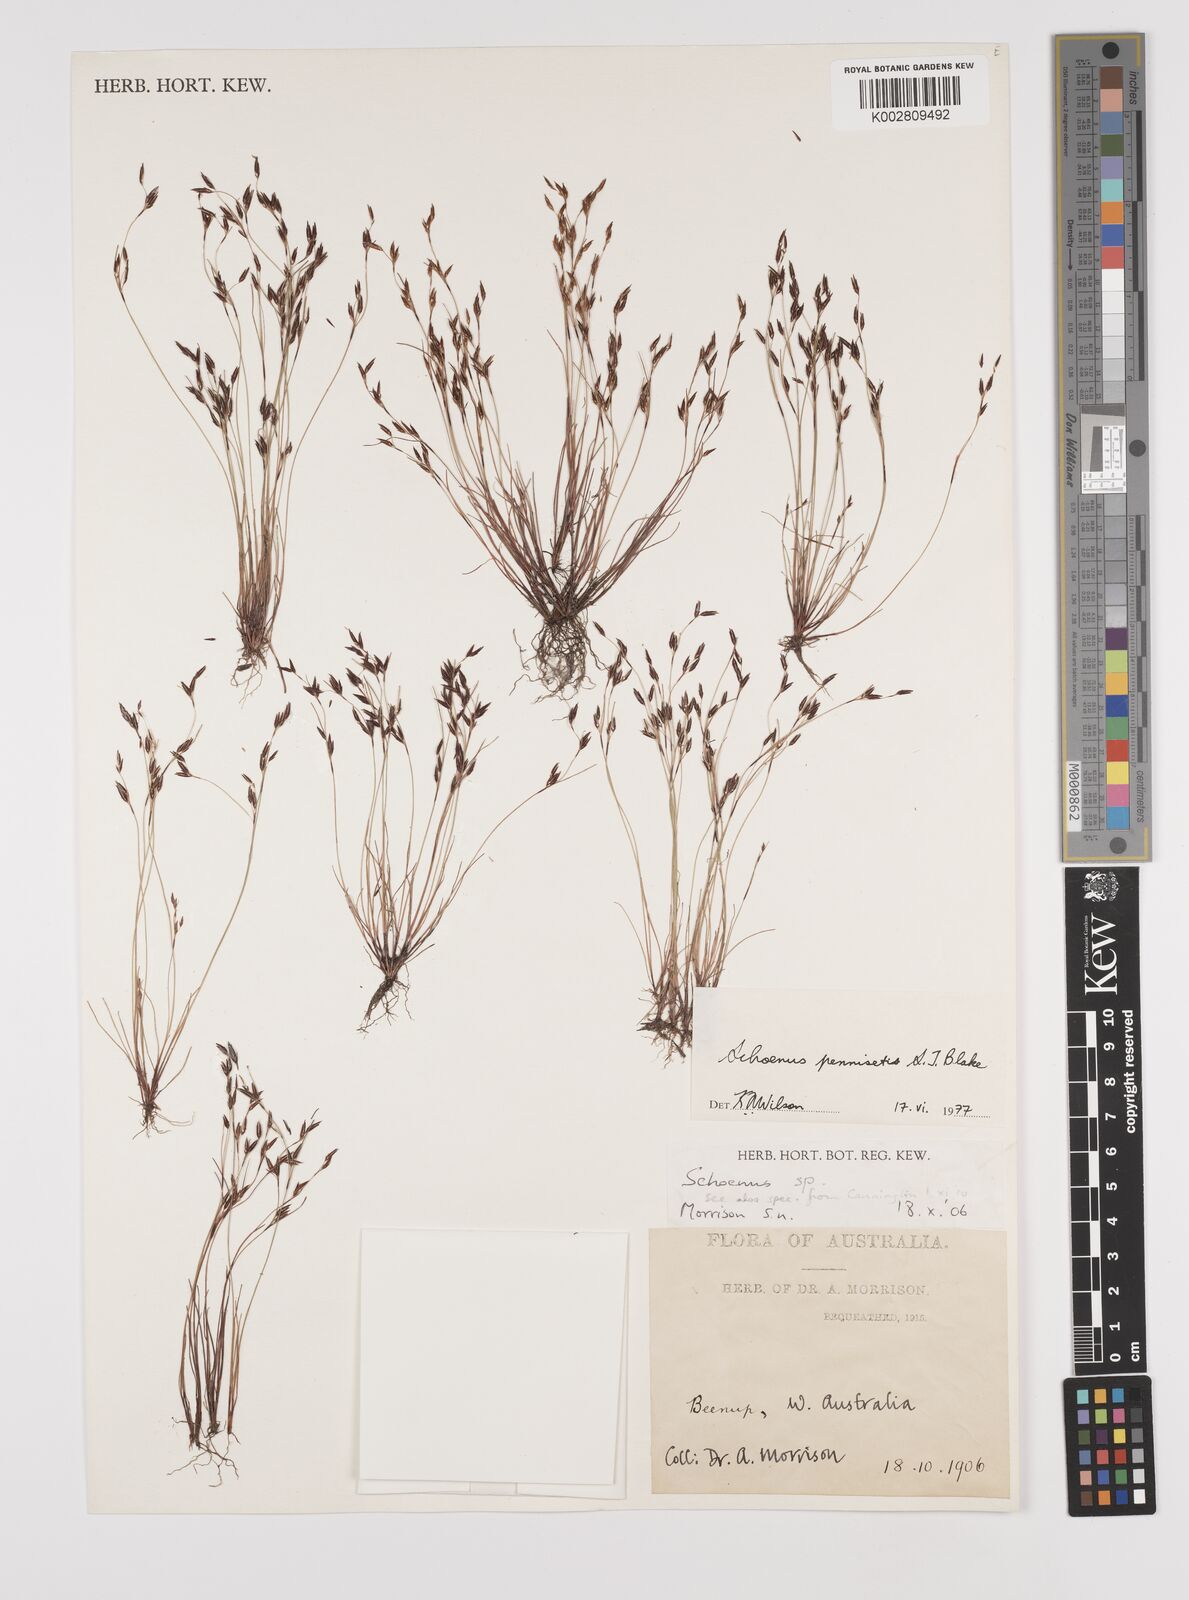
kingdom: Plantae
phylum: Tracheophyta
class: Liliopsida
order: Poales
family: Cyperaceae
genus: Schoenus
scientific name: Schoenus pennisetis
